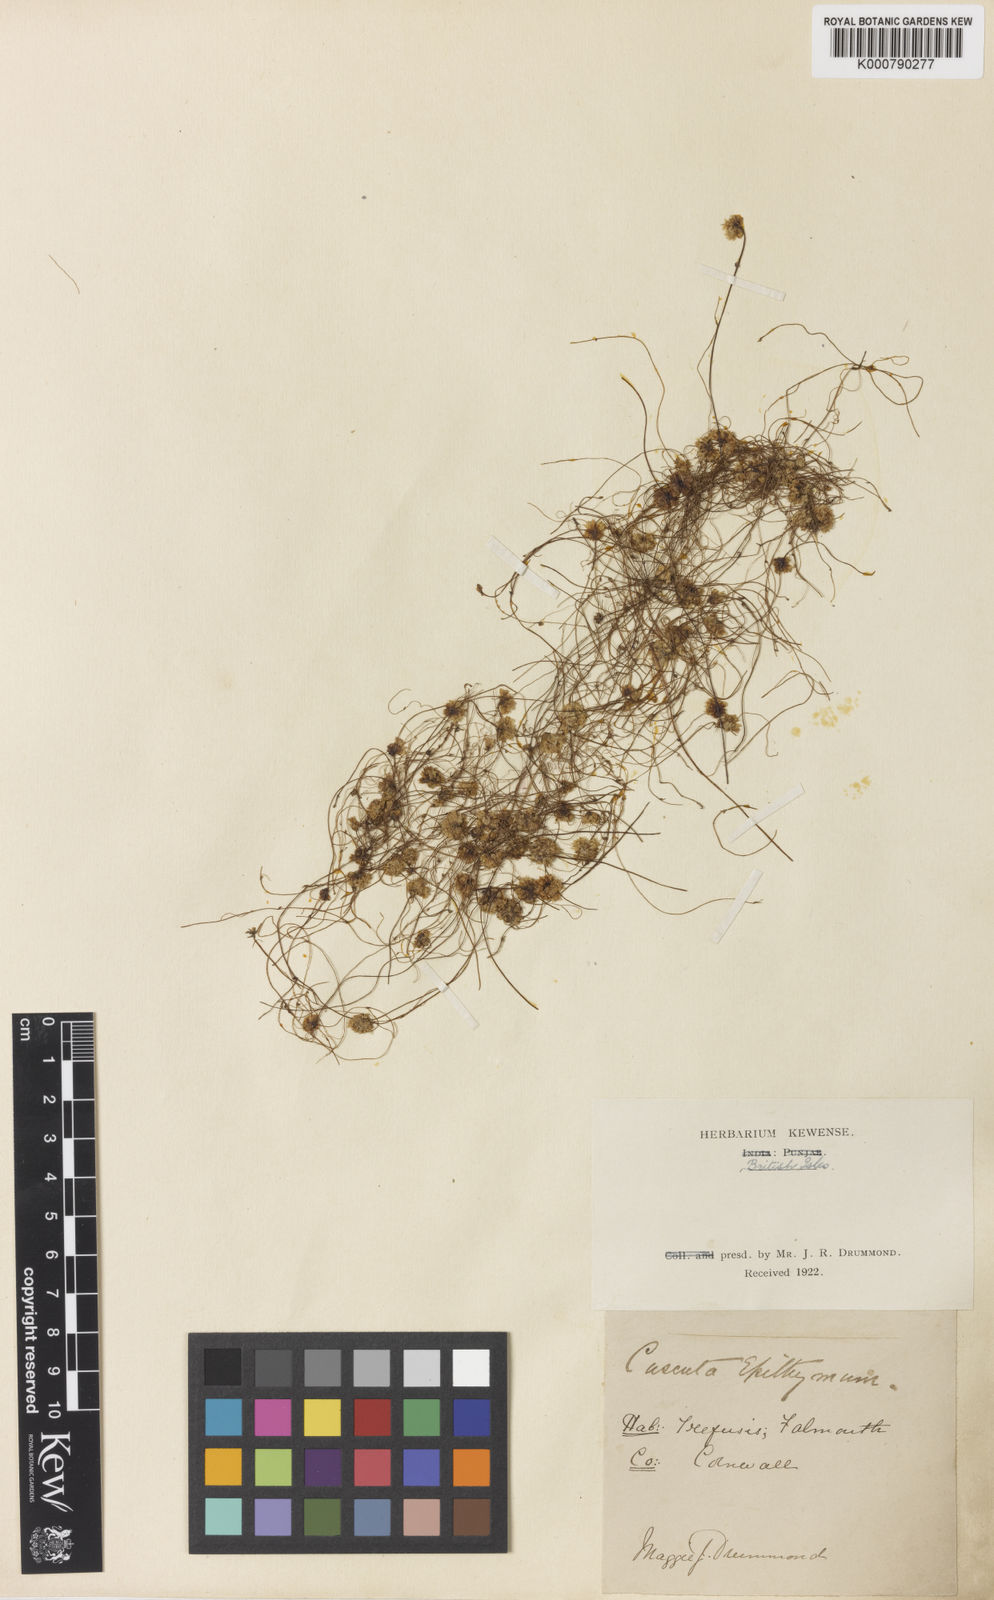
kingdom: Plantae
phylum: Tracheophyta
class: Magnoliopsida
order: Solanales
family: Convolvulaceae
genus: Cuscuta
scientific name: Cuscuta epithymum
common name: Clover dodder
